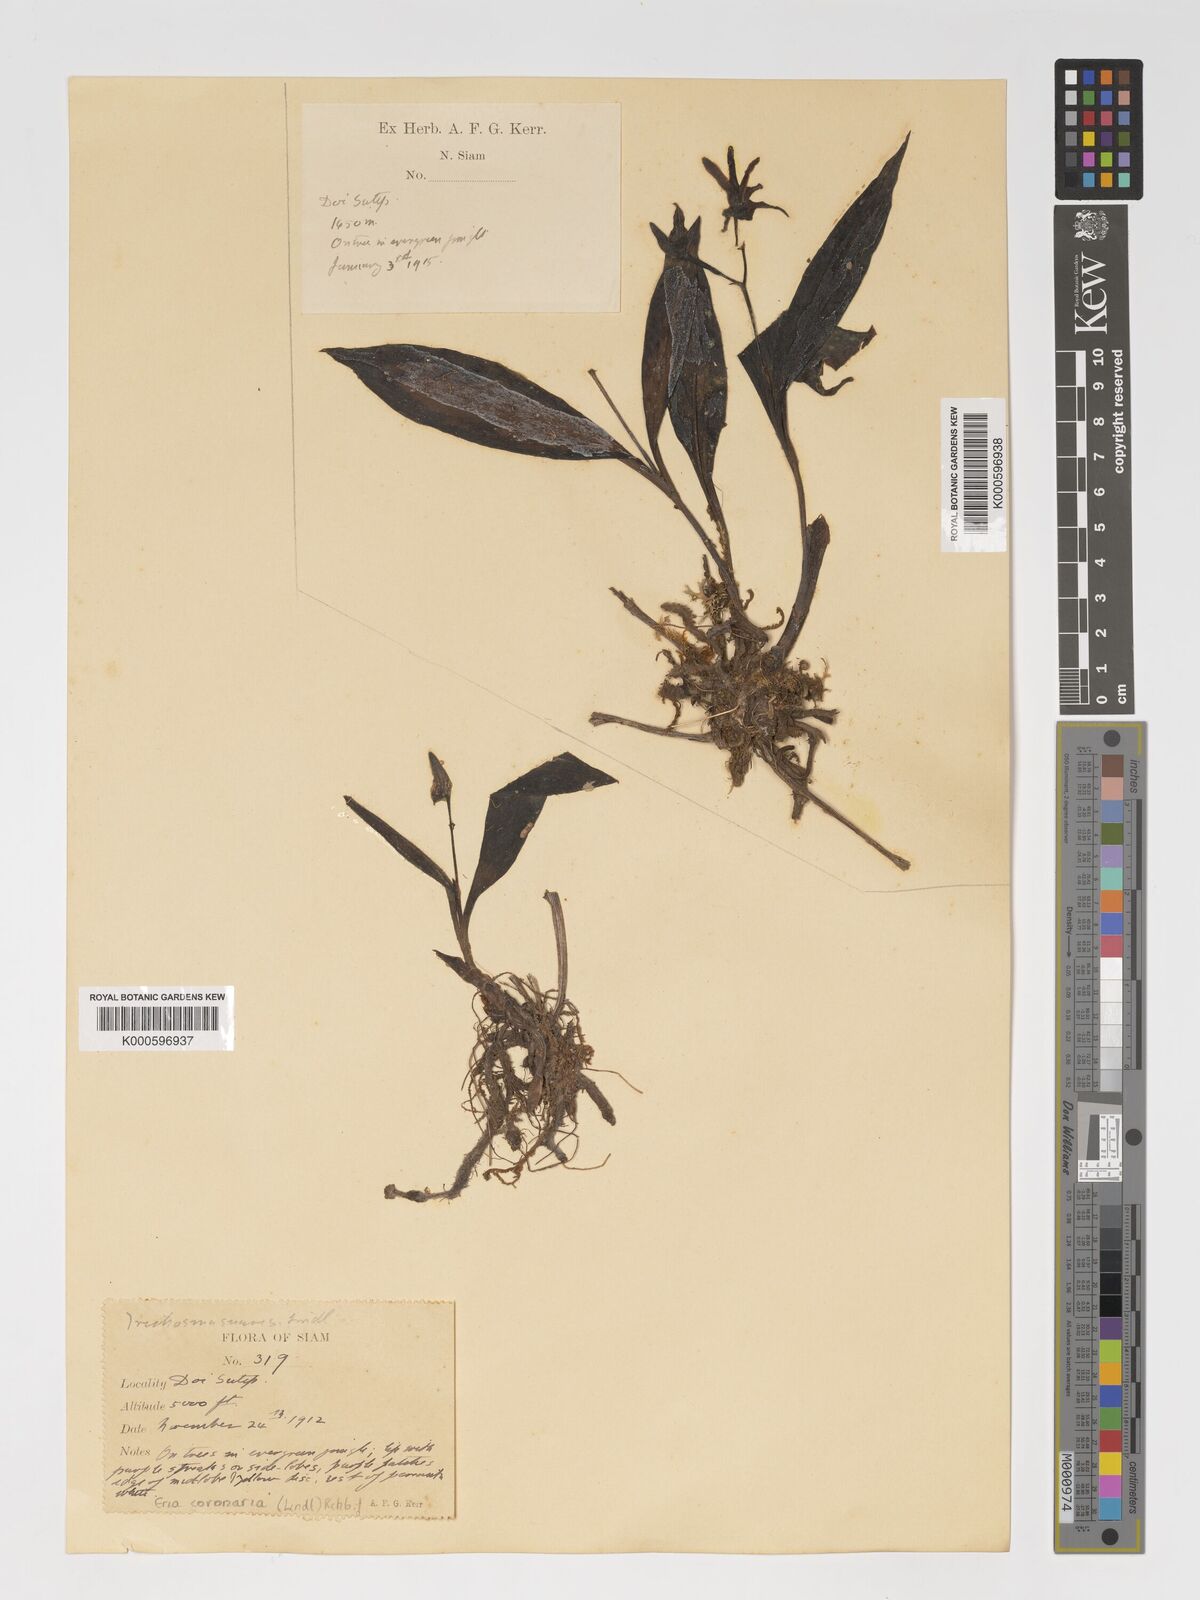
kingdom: Plantae
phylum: Tracheophyta
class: Liliopsida
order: Asparagales
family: Orchidaceae
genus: Eria
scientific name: Eria coronaria
